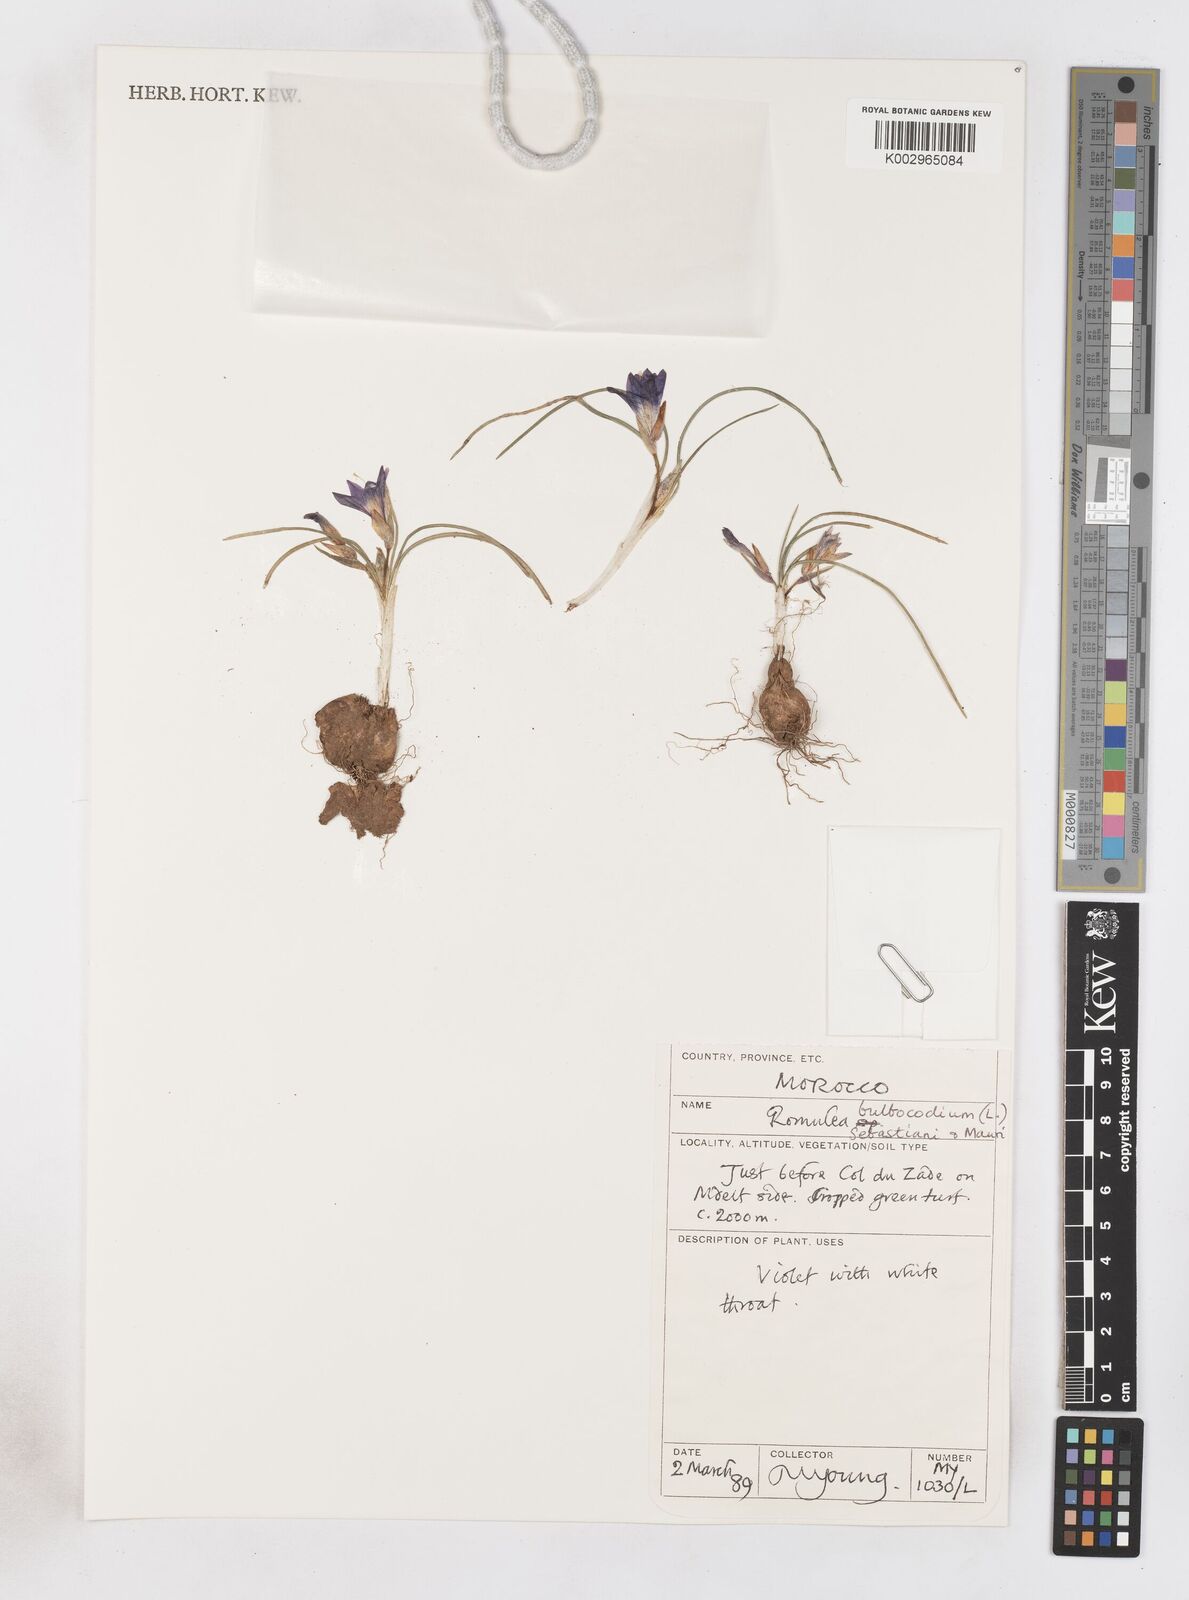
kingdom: Plantae
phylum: Tracheophyta
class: Liliopsida
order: Asparagales
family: Iridaceae
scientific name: Iridaceae
